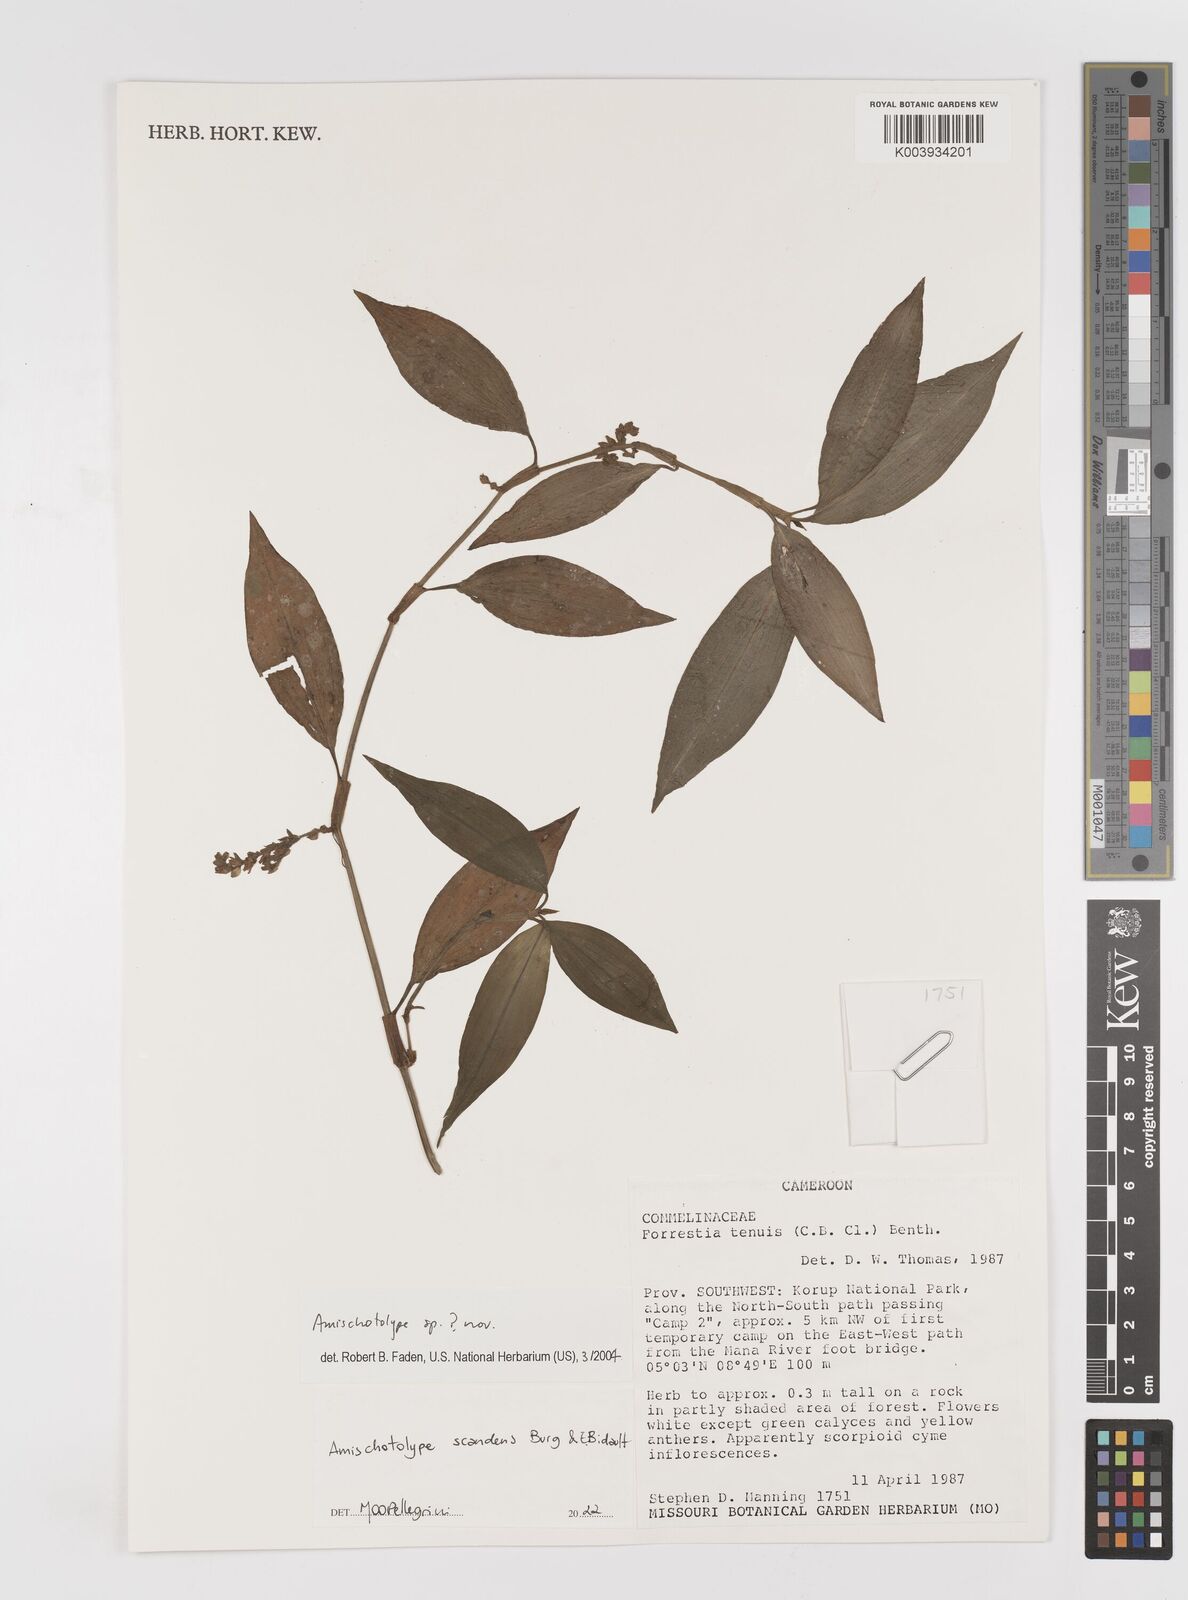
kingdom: Plantae
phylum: Tracheophyta
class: Liliopsida
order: Commelinales
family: Commelinaceae
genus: Amischotolype
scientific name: Amischotolype
